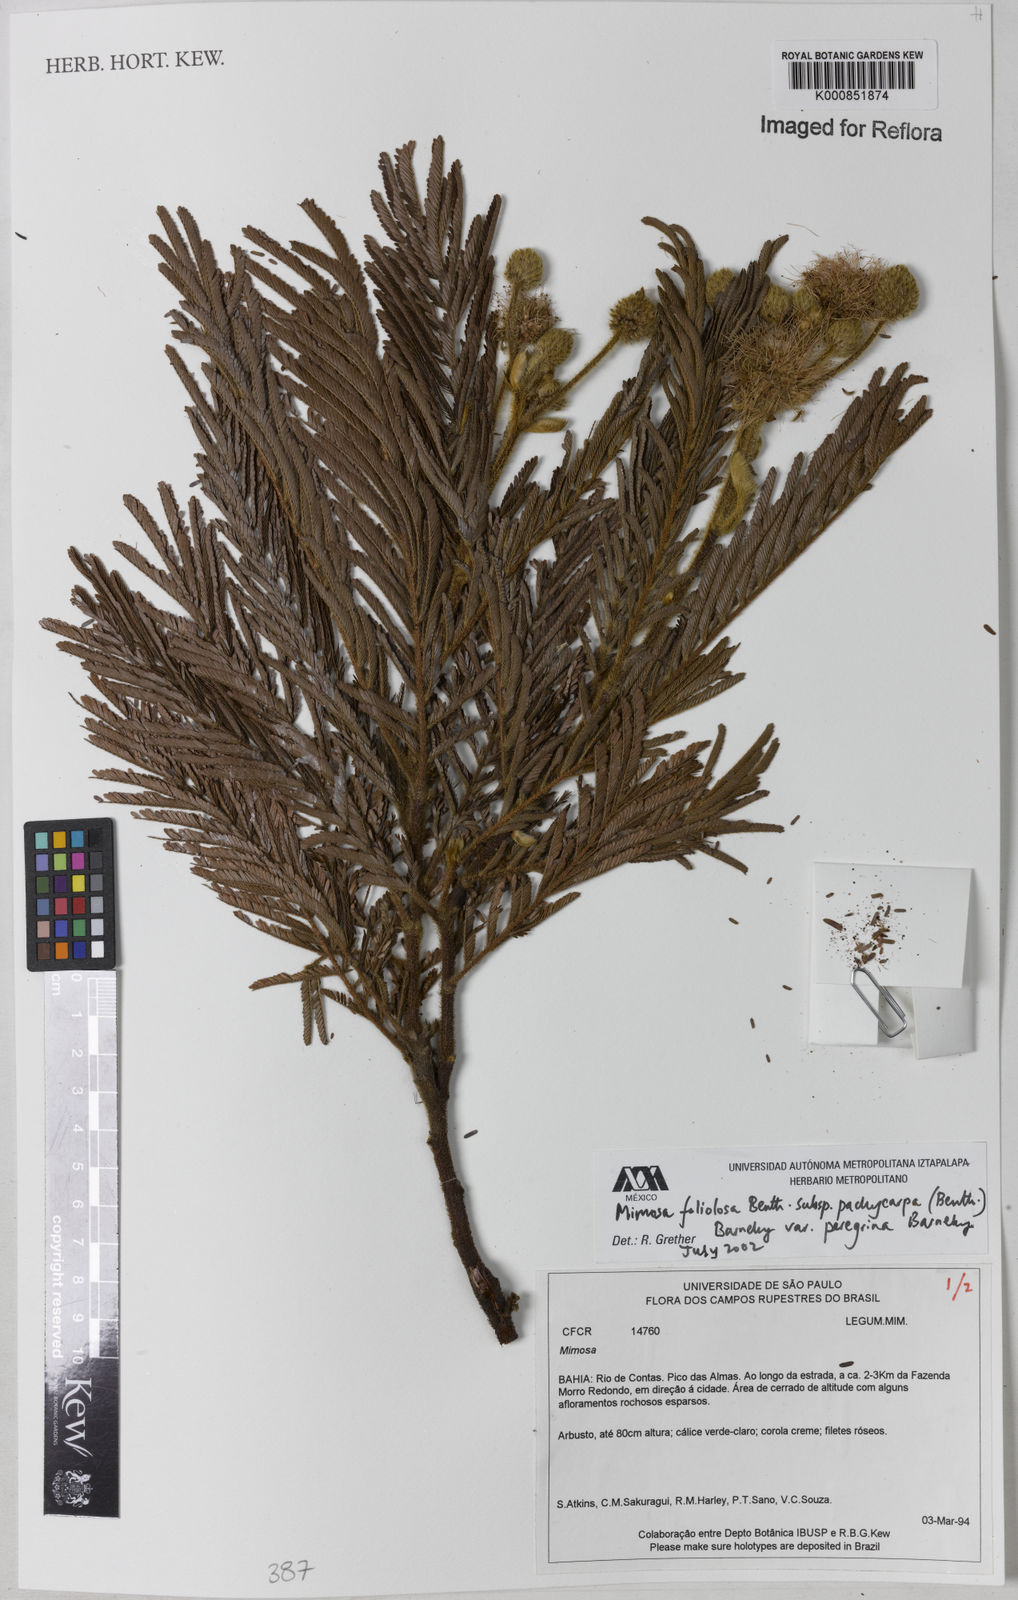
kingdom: Plantae
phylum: Tracheophyta
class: Magnoliopsida
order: Fabales
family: Fabaceae
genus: Mimosa
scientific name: Mimosa foliolosa
